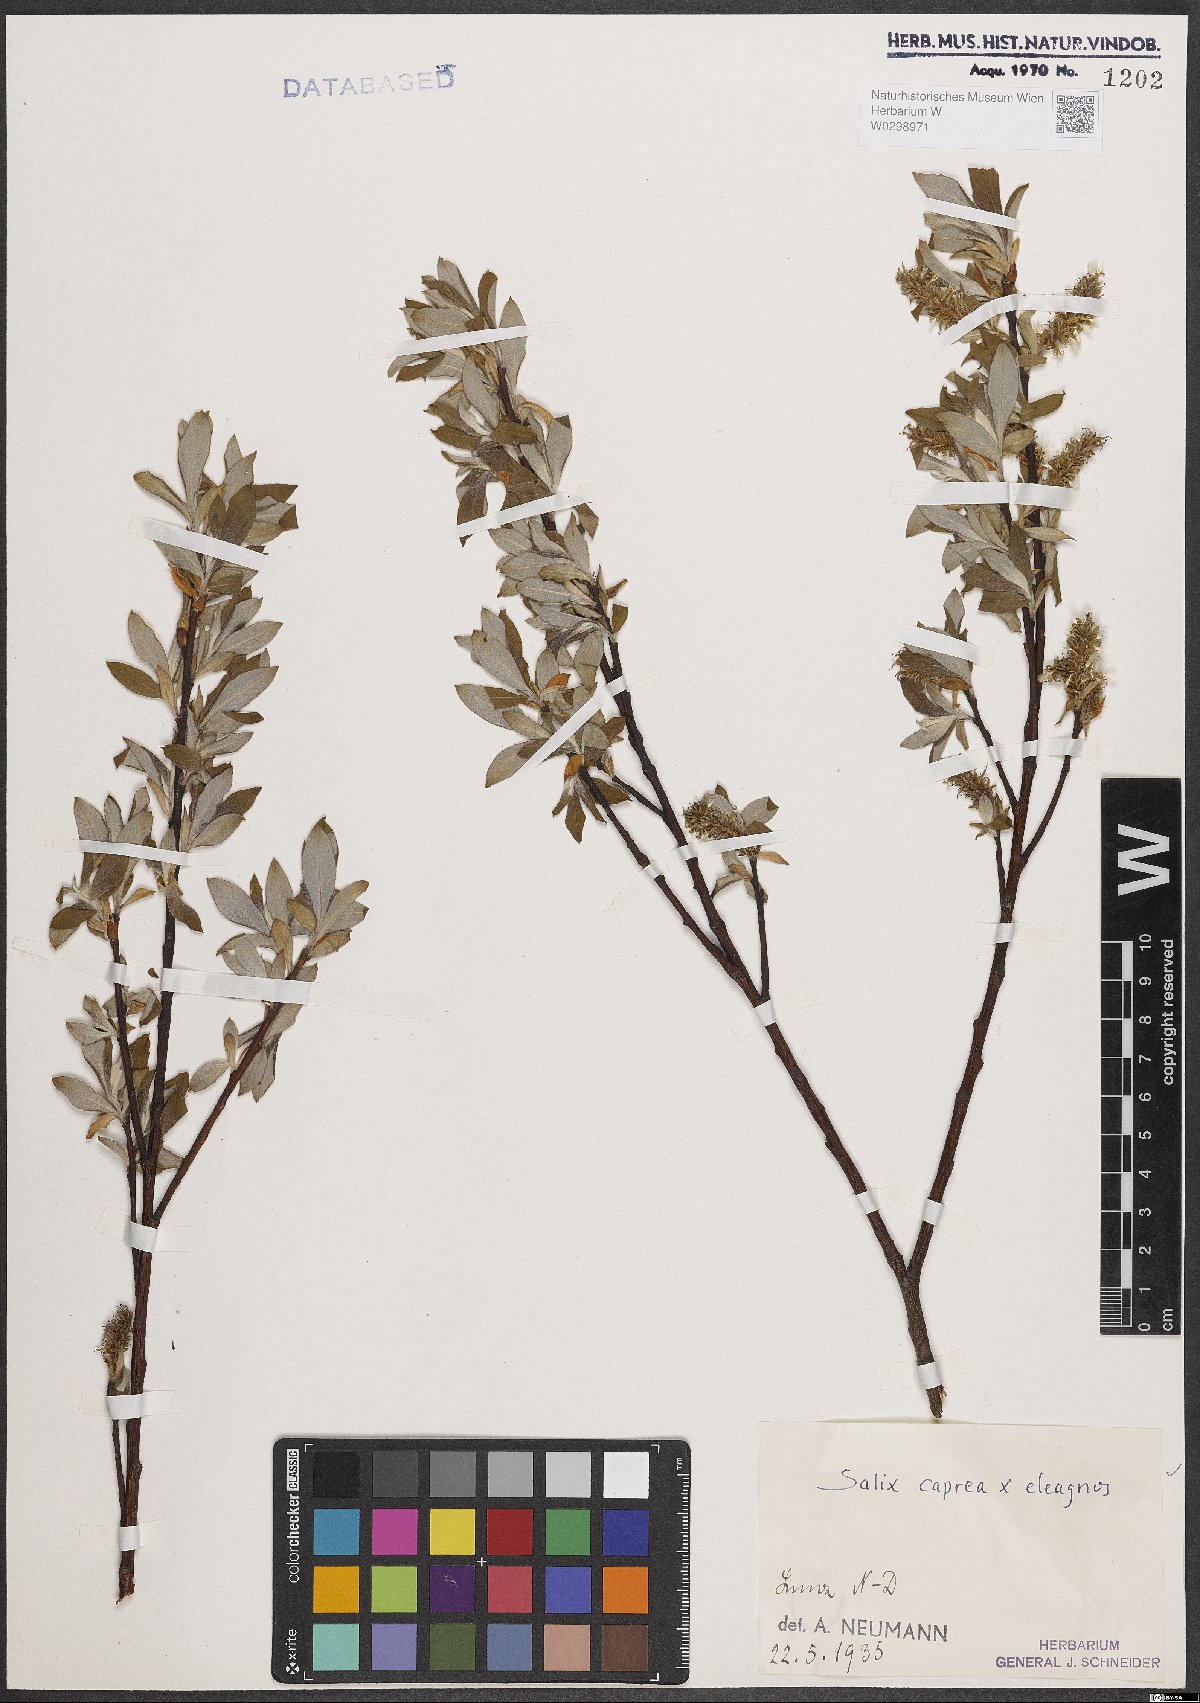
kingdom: Plantae
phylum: Tracheophyta
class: Magnoliopsida
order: Malpighiales
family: Salicaceae
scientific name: Salicaceae
